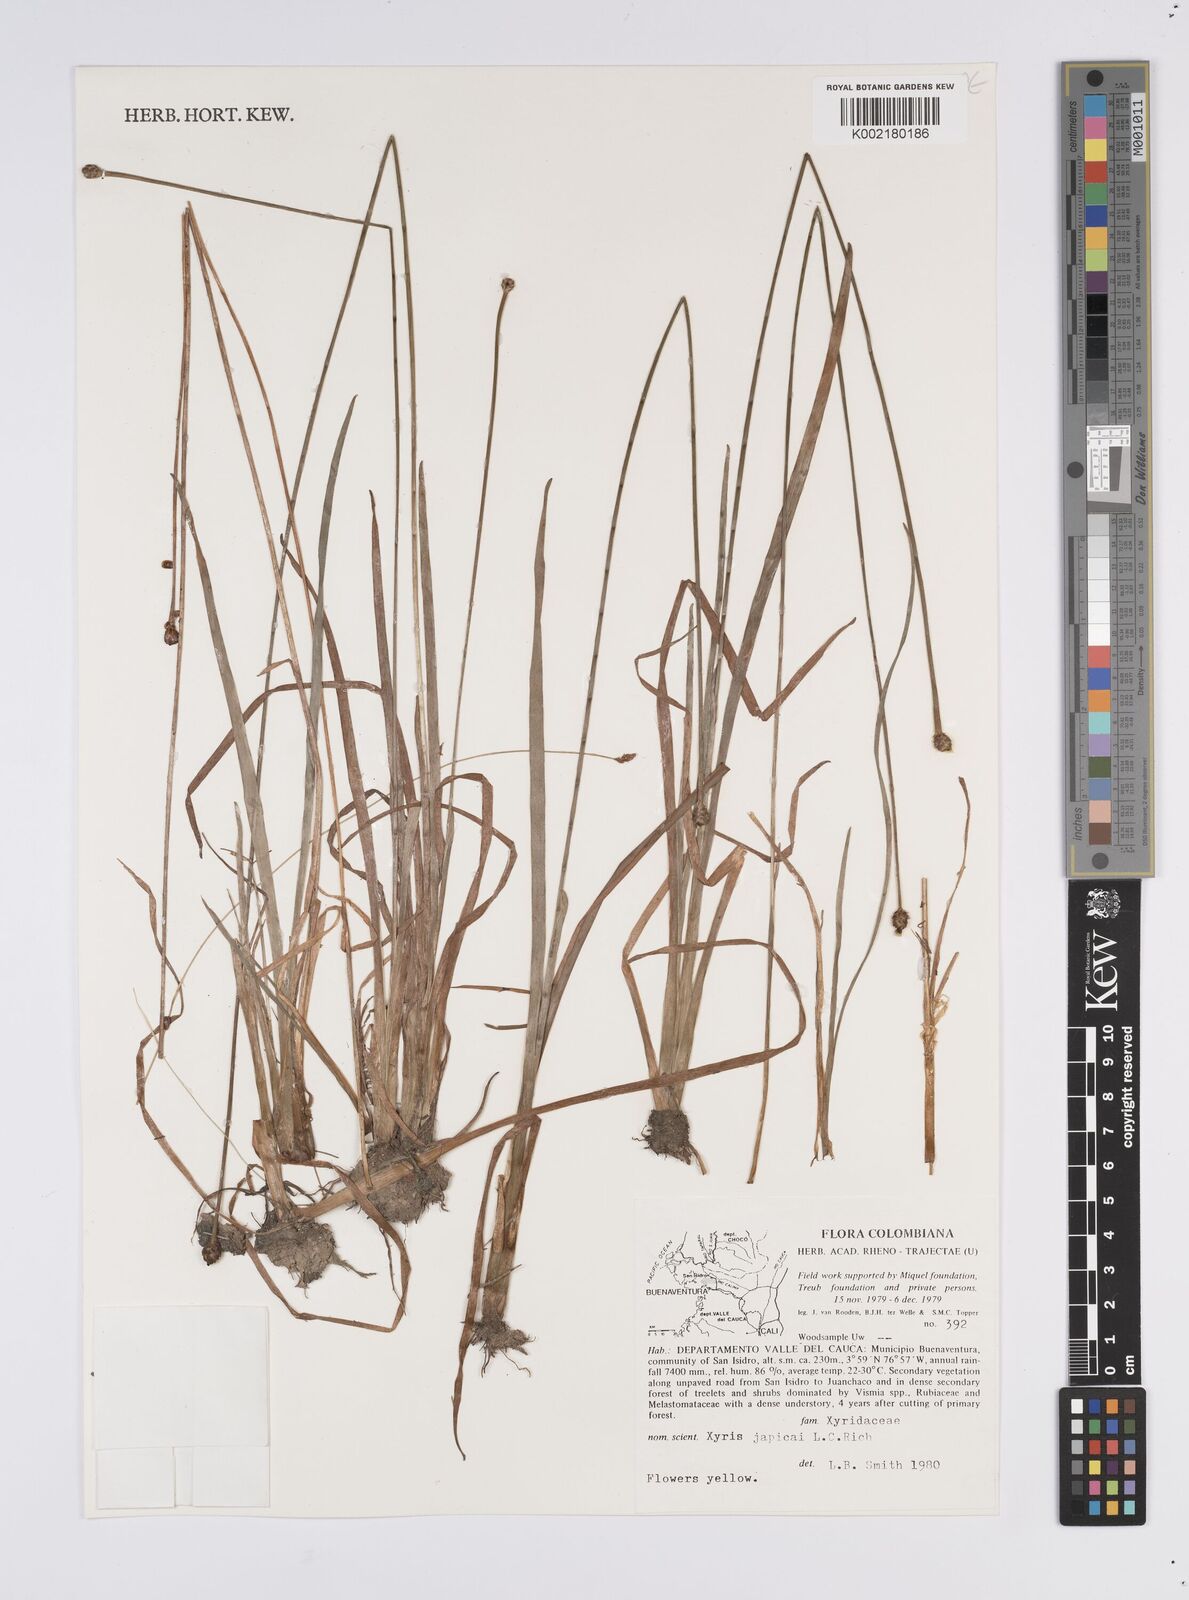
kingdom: Plantae
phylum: Tracheophyta
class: Liliopsida
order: Poales
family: Xyridaceae
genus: Xyris
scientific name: Xyris jupicai
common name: Richard's yelloweyed grass
